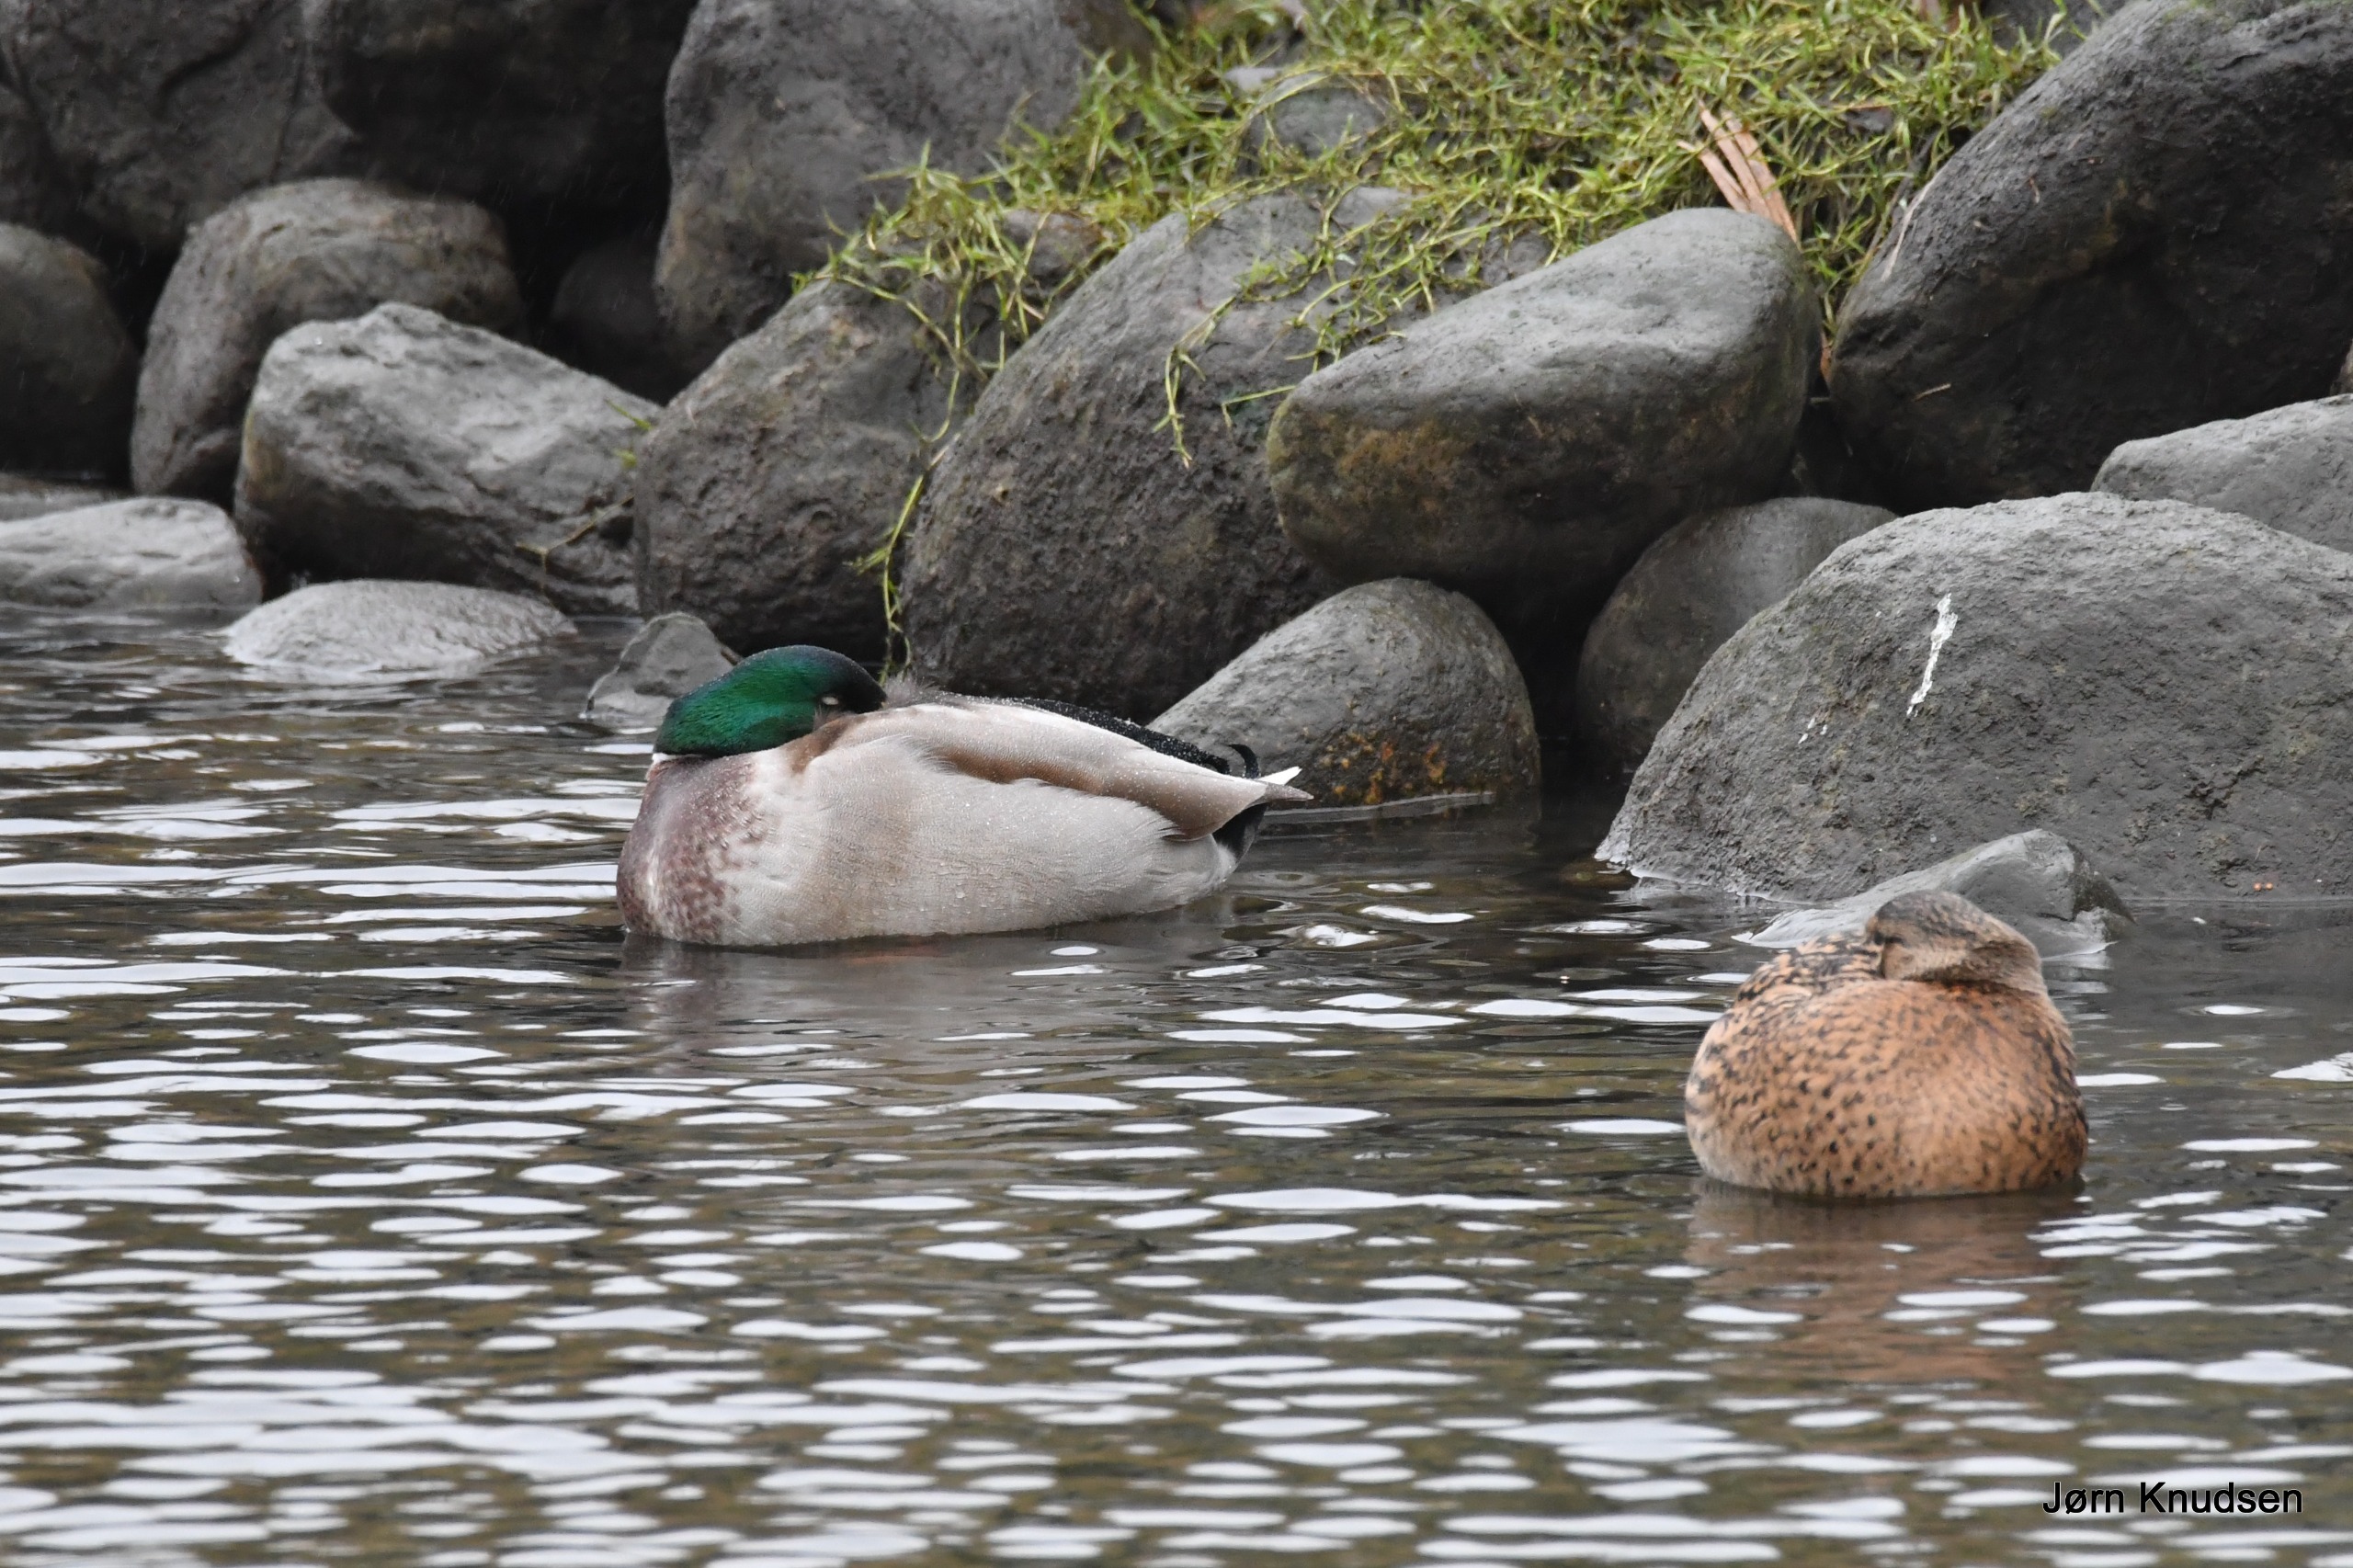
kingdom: Animalia
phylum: Chordata
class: Aves
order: Anseriformes
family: Anatidae
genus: Anas
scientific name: Anas platyrhynchos
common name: Gråand
